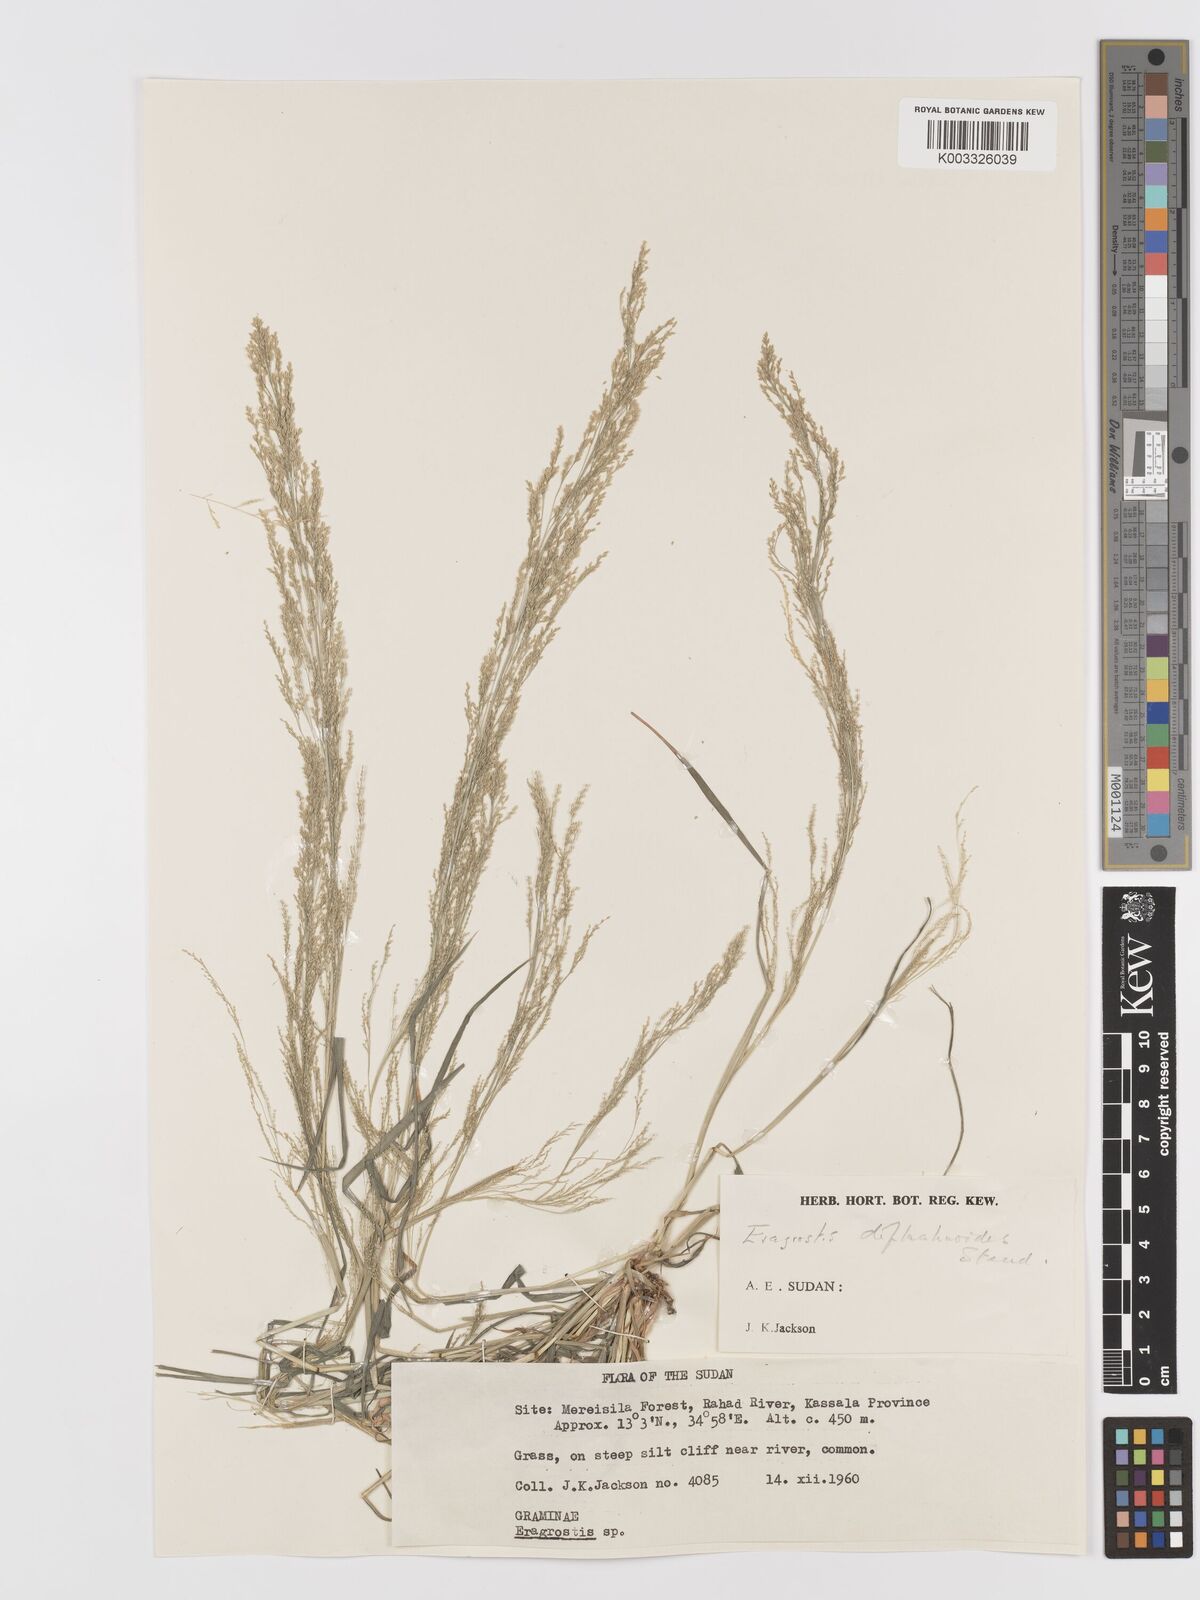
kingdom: Plantae
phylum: Tracheophyta
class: Liliopsida
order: Poales
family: Poaceae
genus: Eragrostis
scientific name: Eragrostis japonica
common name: Pond lovegrass
